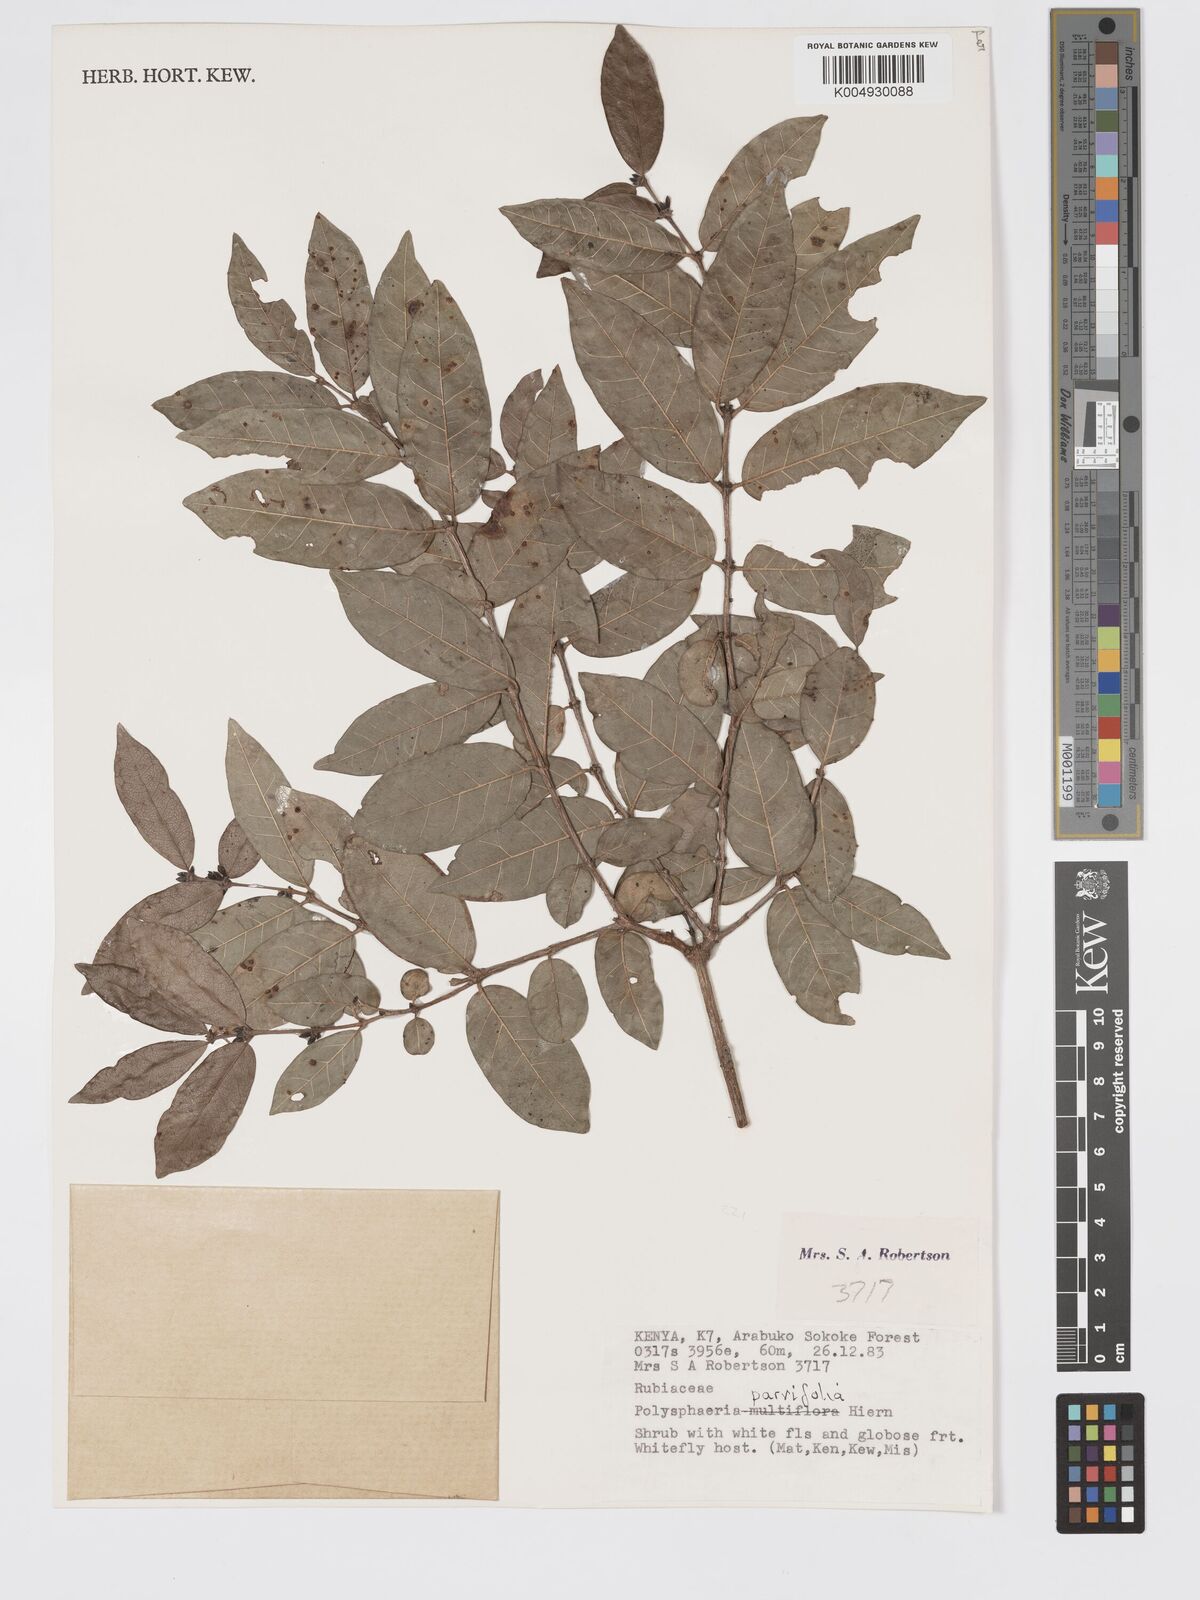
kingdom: Plantae
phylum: Tracheophyta
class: Magnoliopsida
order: Gentianales
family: Rubiaceae
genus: Polysphaeria
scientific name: Polysphaeria parvifolia
